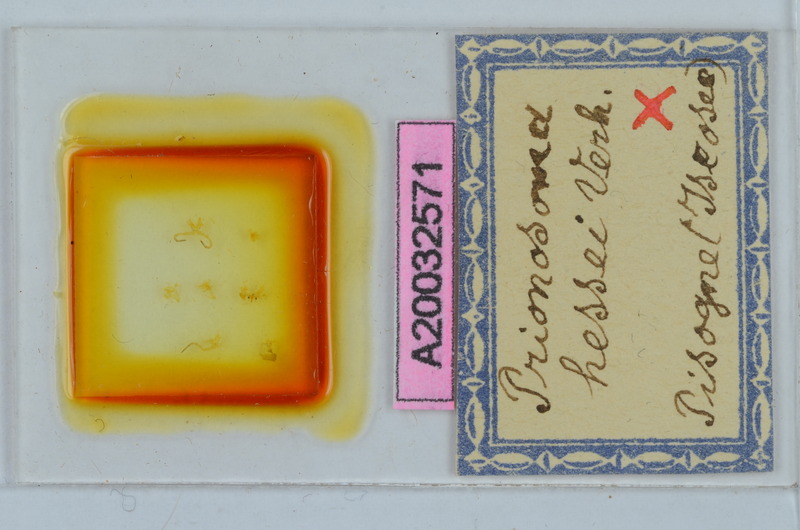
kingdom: Animalia
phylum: Arthropoda
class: Diplopoda
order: Chordeumatida
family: Craspedosomatidae
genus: Bergamosoma
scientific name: Bergamosoma hessei
